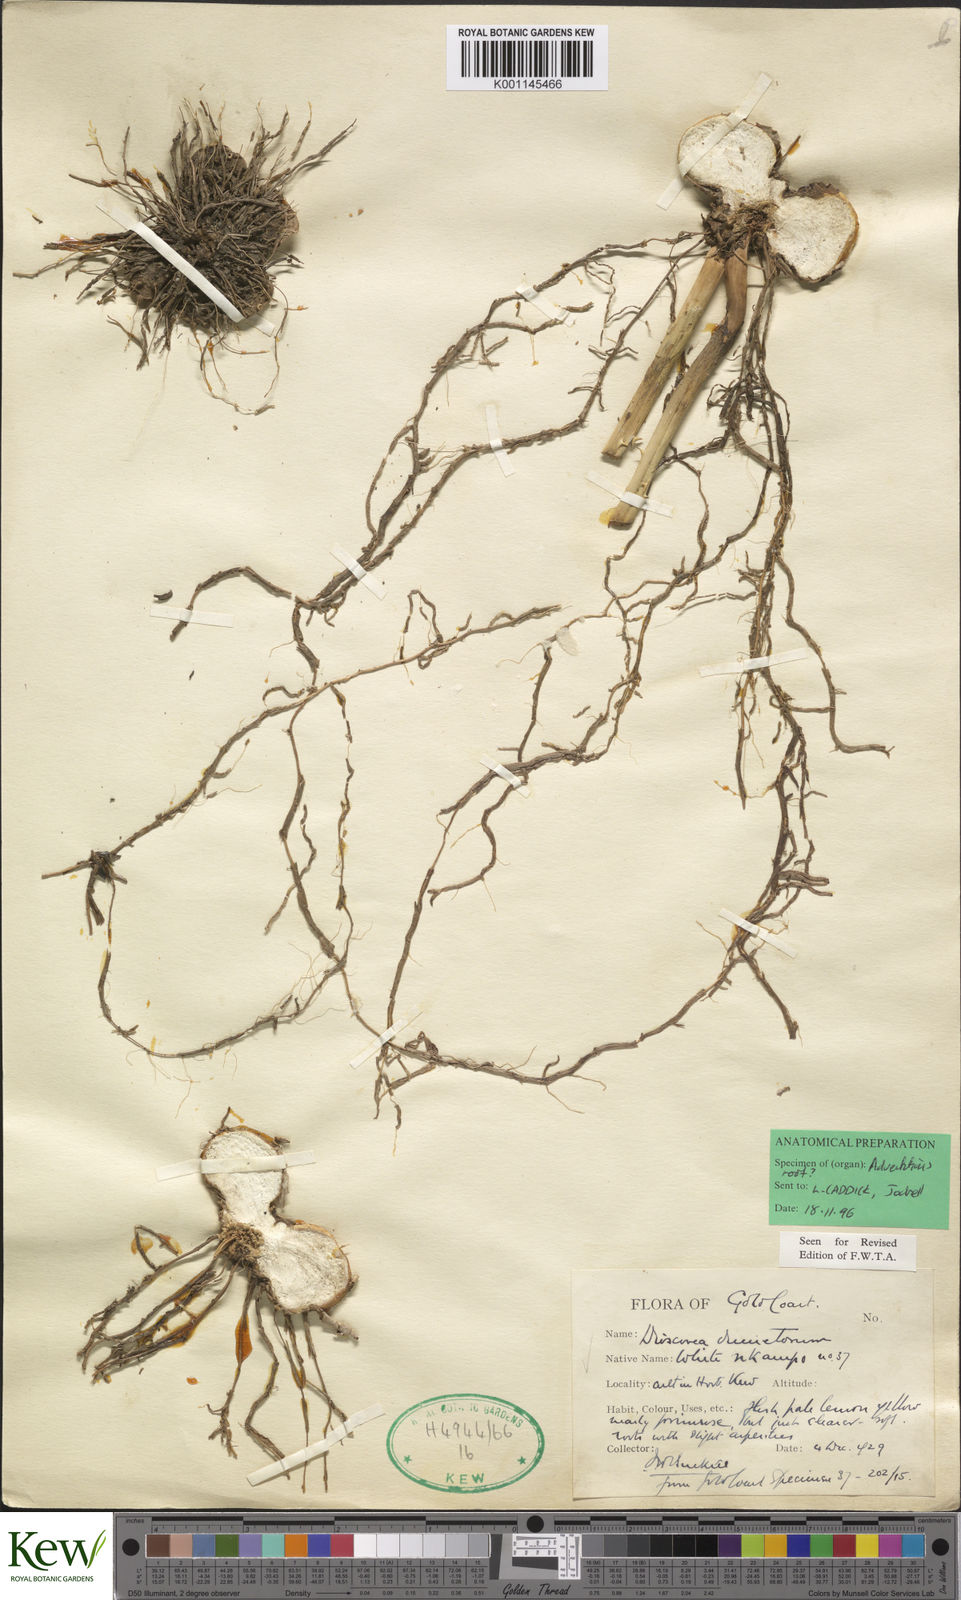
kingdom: Plantae
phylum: Tracheophyta
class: Liliopsida
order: Dioscoreales
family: Dioscoreaceae
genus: Dioscorea
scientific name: Dioscorea dumetorum
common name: African bitter yam
